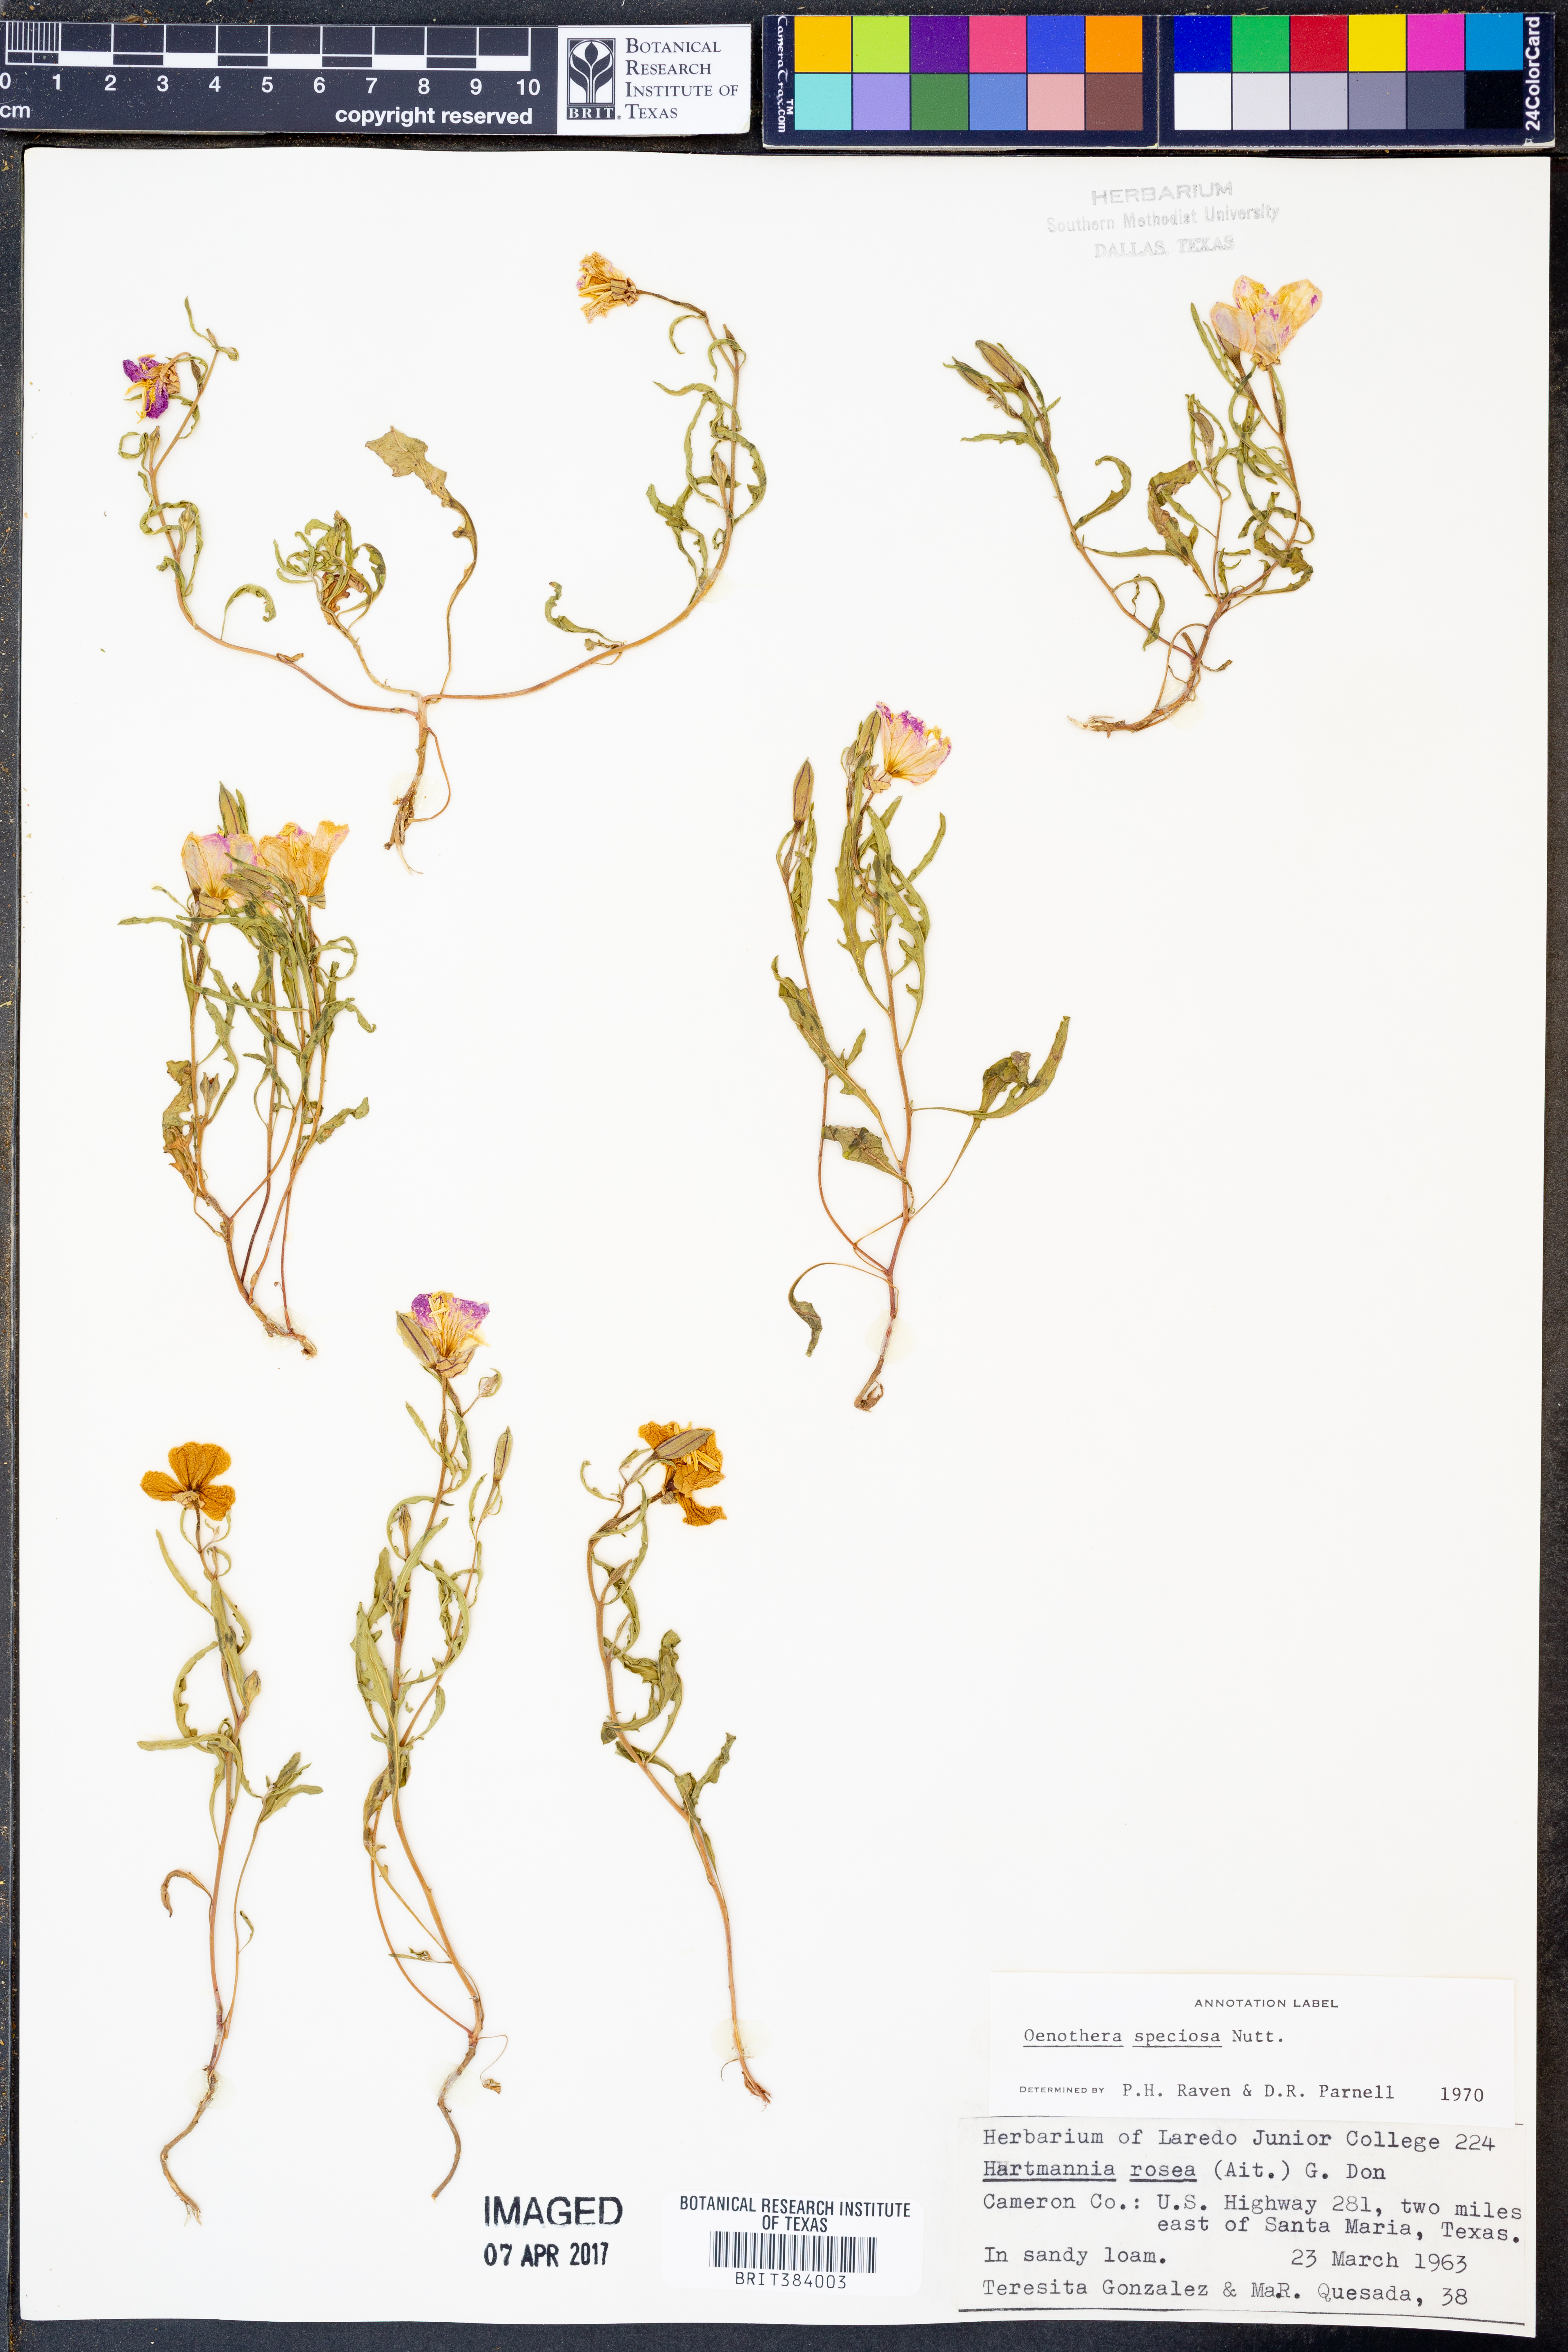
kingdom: Plantae
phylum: Tracheophyta
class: Magnoliopsida
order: Myrtales
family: Onagraceae
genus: Oenothera
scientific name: Oenothera speciosa
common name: White evening-primrose
